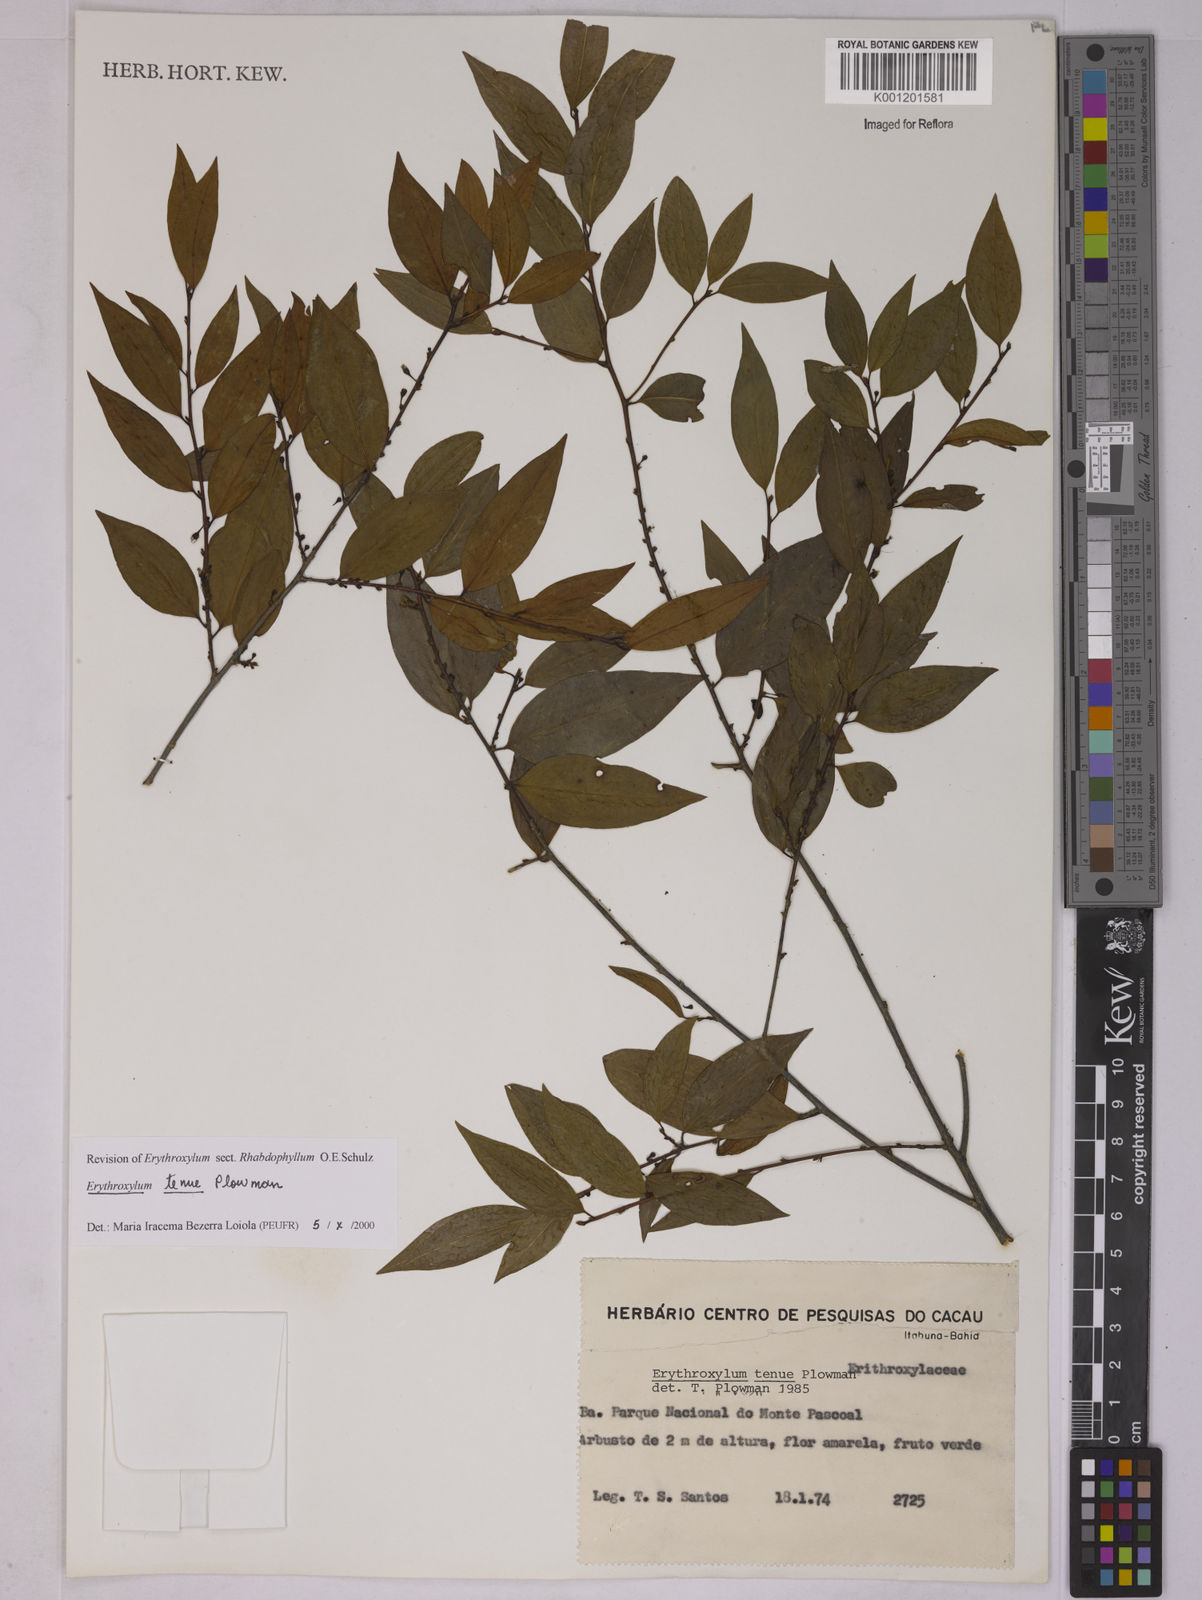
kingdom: Plantae
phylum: Tracheophyta
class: Magnoliopsida
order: Malpighiales
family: Erythroxylaceae
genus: Erythroxylum
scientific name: Erythroxylum tenue
